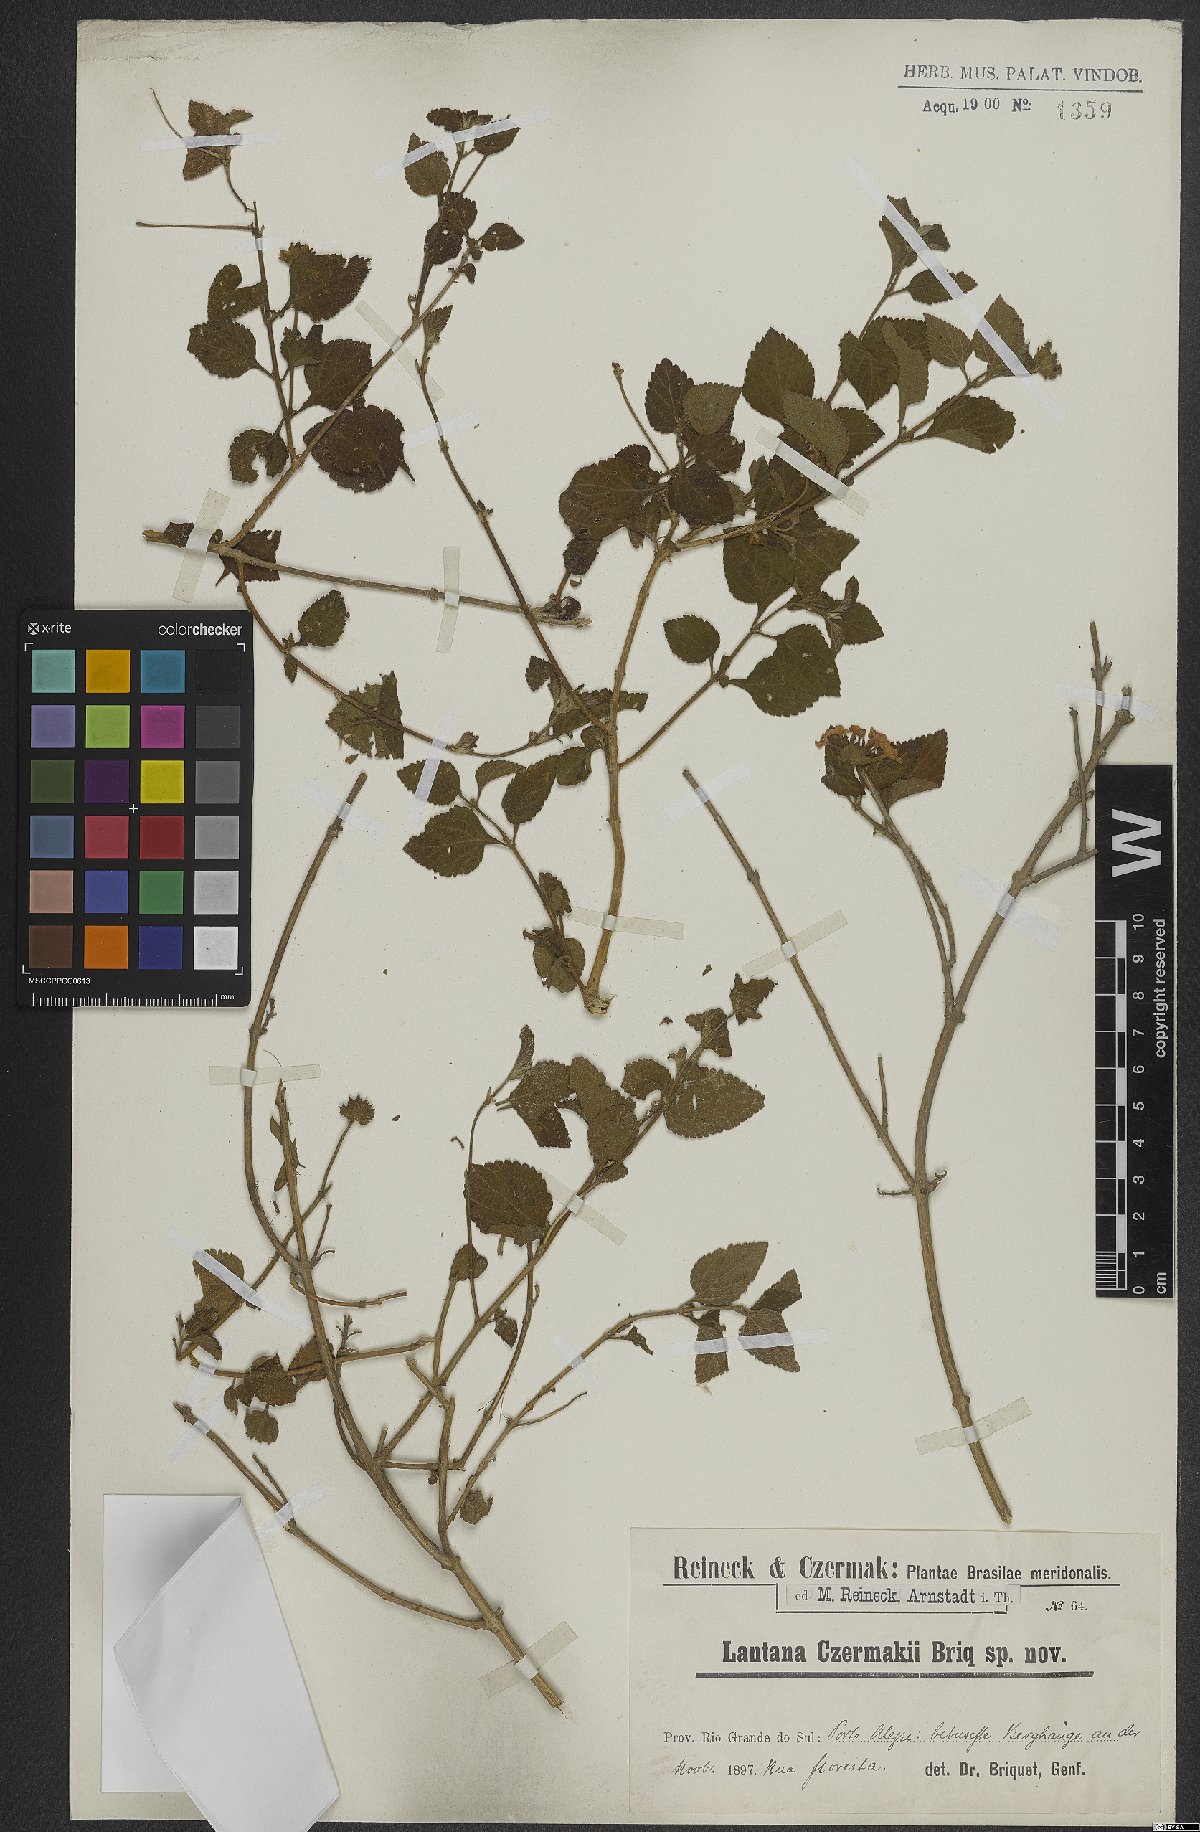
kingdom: Plantae
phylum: Tracheophyta
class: Magnoliopsida
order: Lamiales
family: Verbenaceae
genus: Lantana
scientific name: Lantana fucata
